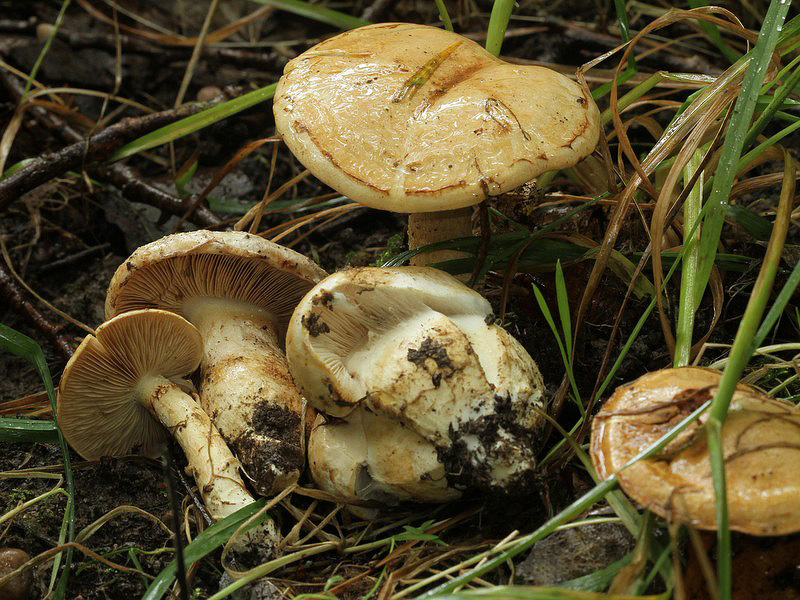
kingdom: Fungi
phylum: Basidiomycota
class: Agaricomycetes
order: Agaricales
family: Cortinariaceae
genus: Phlegmacium
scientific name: Phlegmacium argutum
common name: hvidlig slørhat
